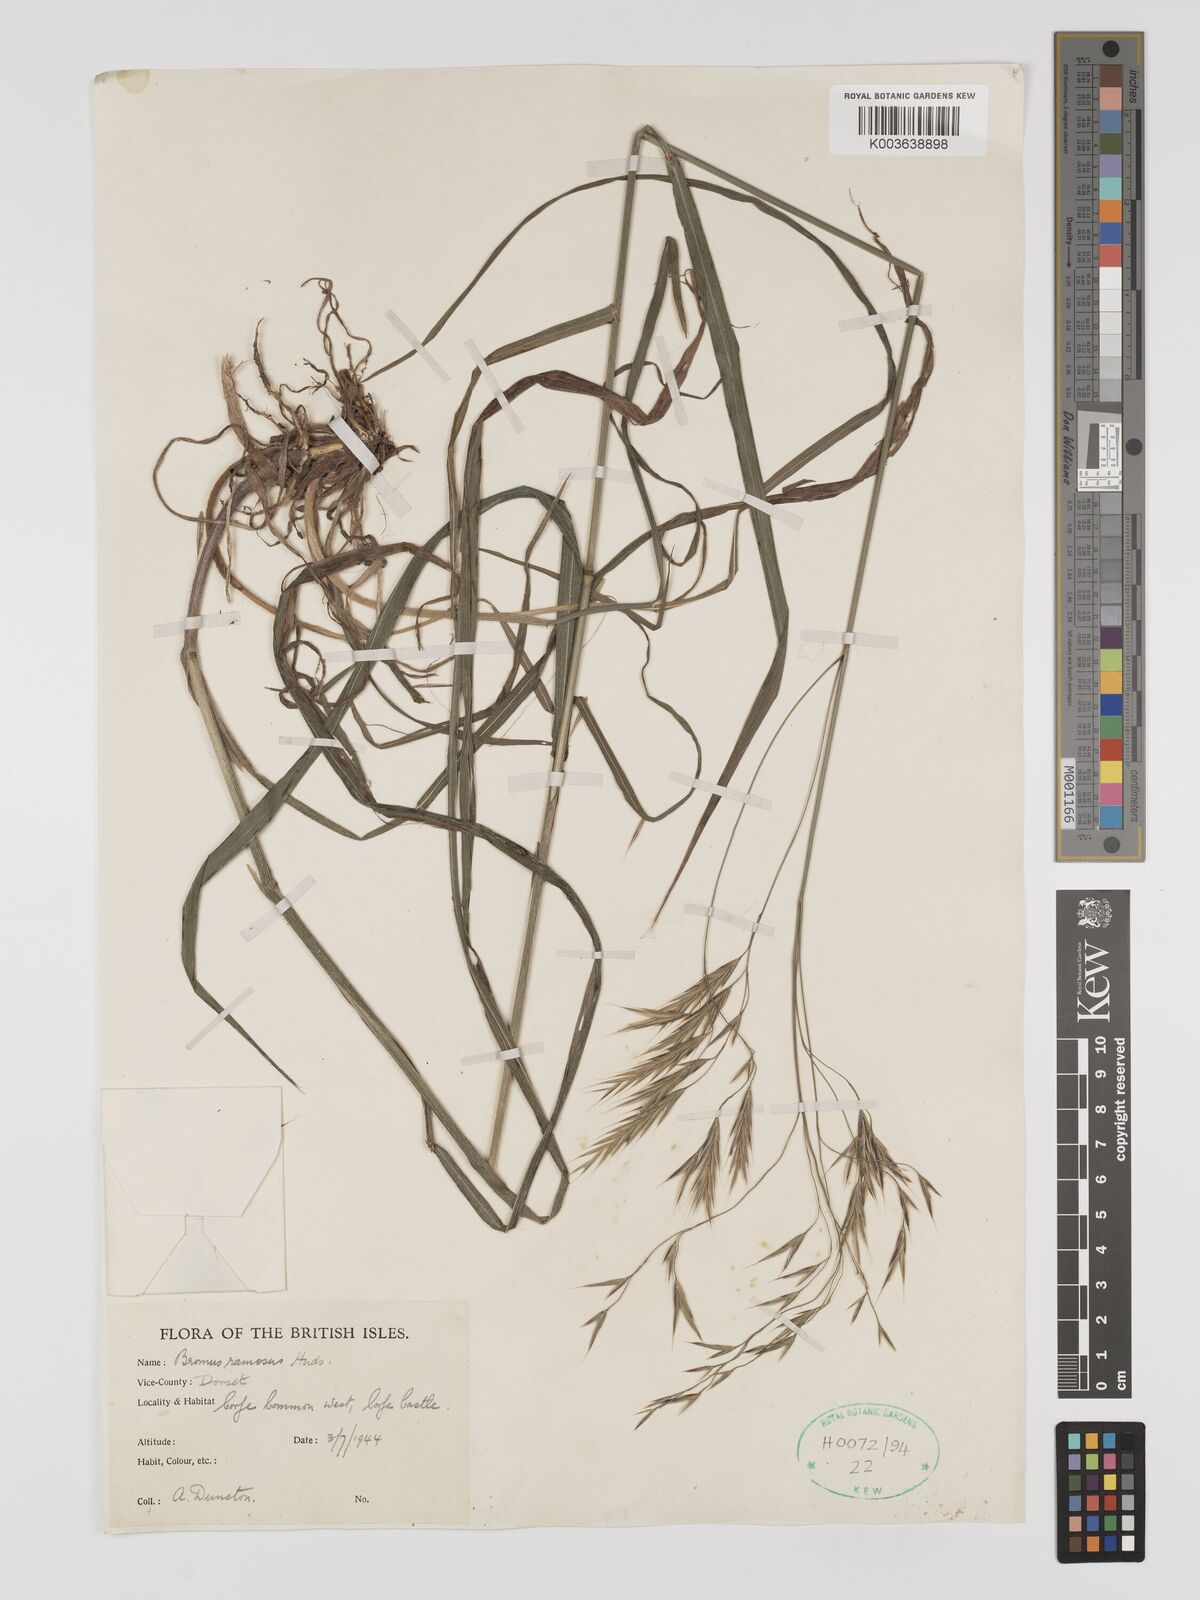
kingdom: Plantae
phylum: Tracheophyta
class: Liliopsida
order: Poales
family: Poaceae
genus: Brachypodium
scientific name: Brachypodium retusum
